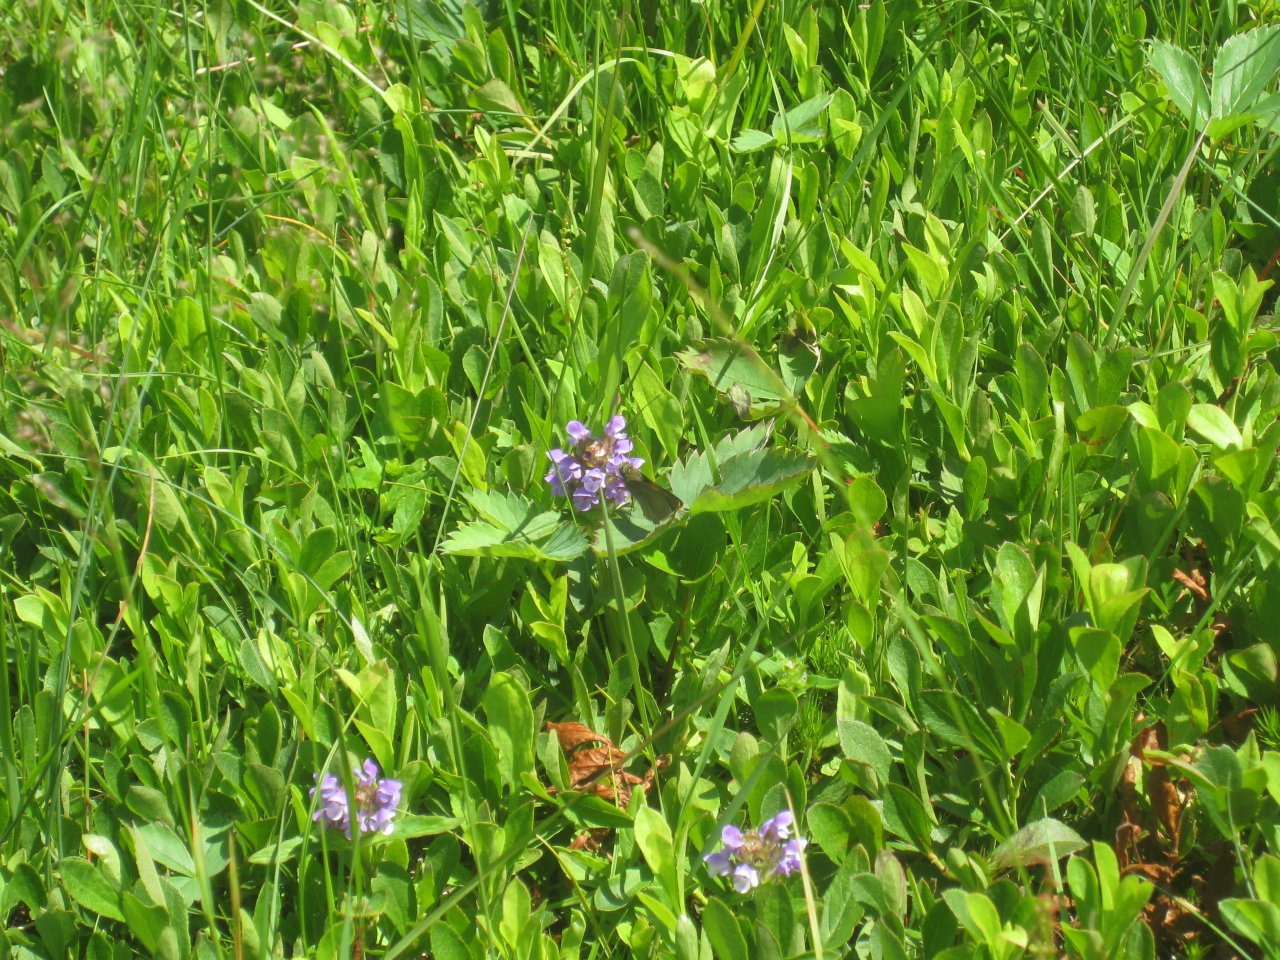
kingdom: Animalia
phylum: Arthropoda
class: Insecta
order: Lepidoptera
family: Hesperiidae
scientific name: Hesperiidae
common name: Skippers
